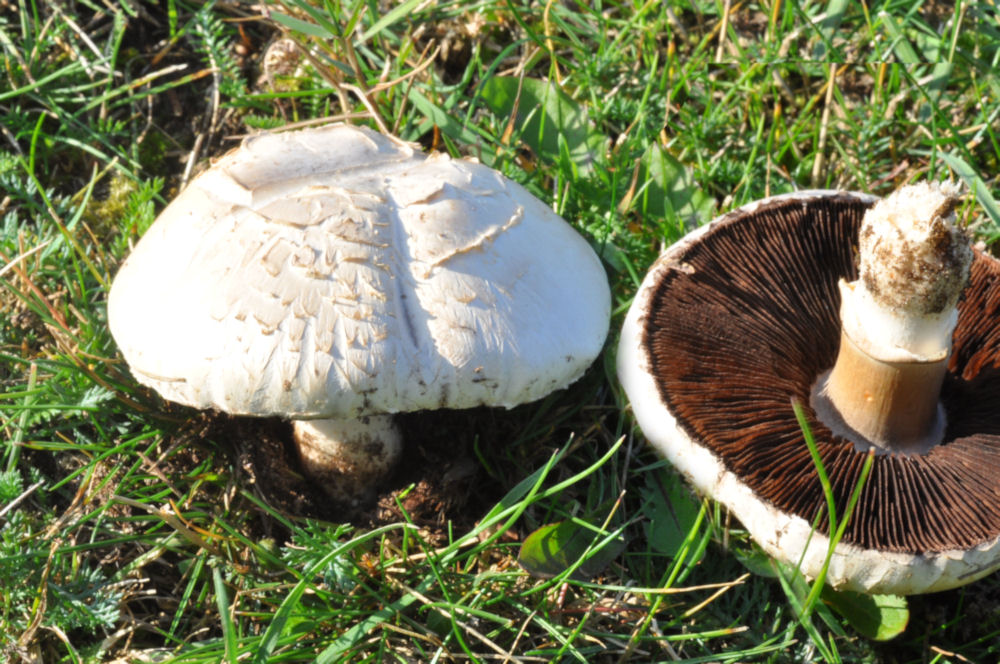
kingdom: Fungi
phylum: Basidiomycota
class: Agaricomycetes
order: Agaricales
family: Agaricaceae
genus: Agaricus
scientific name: Agaricus arvensis
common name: ager-champignon
